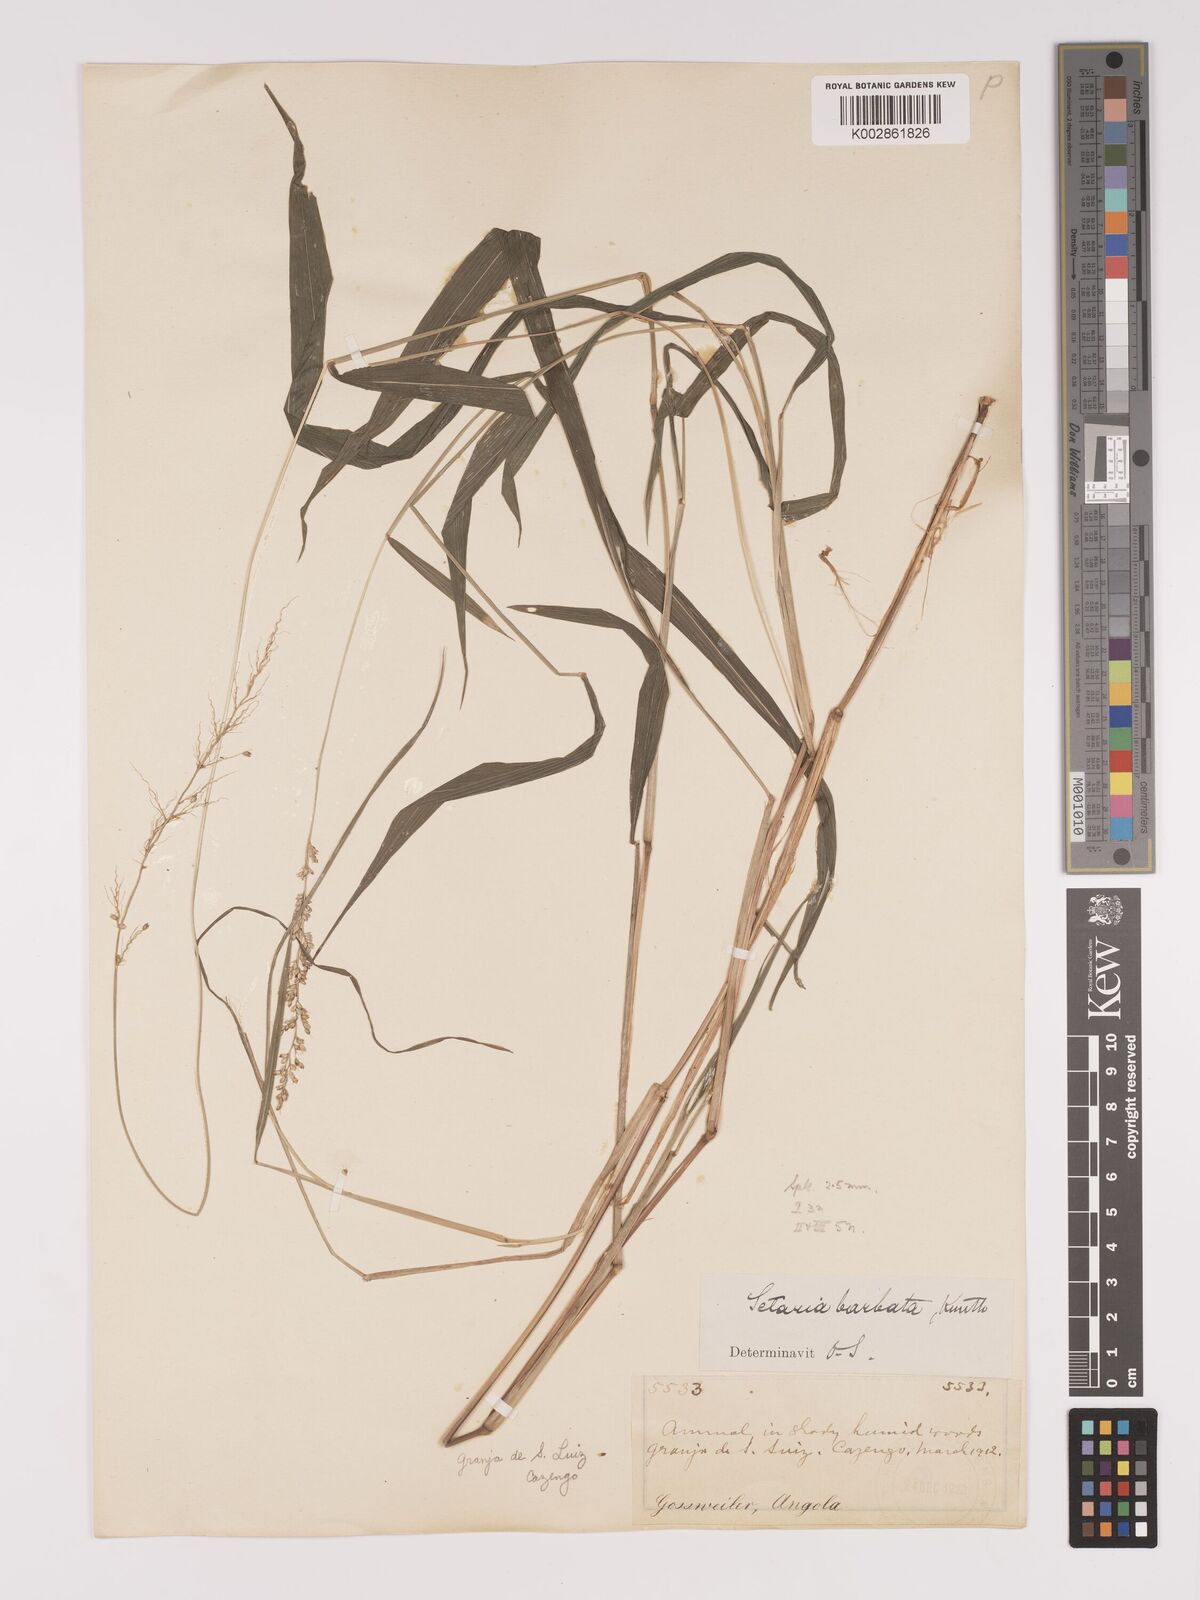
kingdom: Plantae
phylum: Tracheophyta
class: Liliopsida
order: Poales
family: Poaceae
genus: Setaria
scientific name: Setaria barbata
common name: East indian bristlegrass
